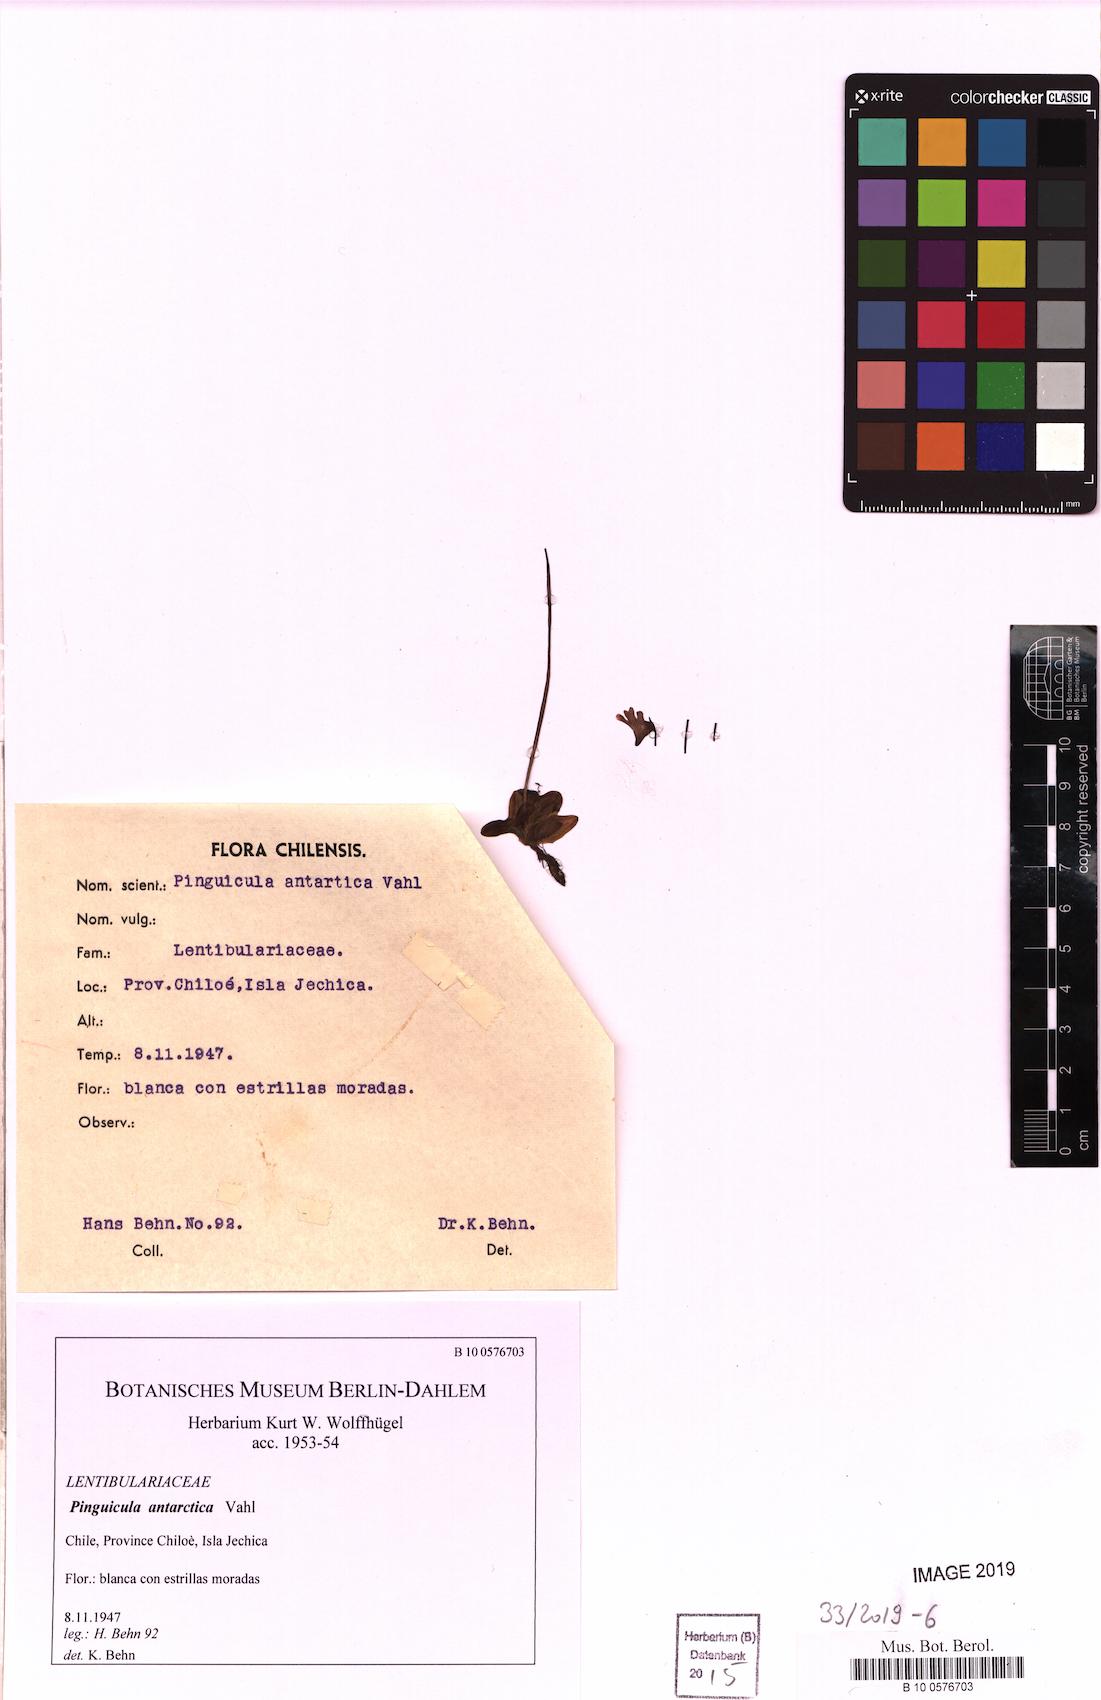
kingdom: Plantae
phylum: Tracheophyta
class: Magnoliopsida
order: Lamiales
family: Lentibulariaceae
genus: Pinguicula
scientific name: Pinguicula antarctica
